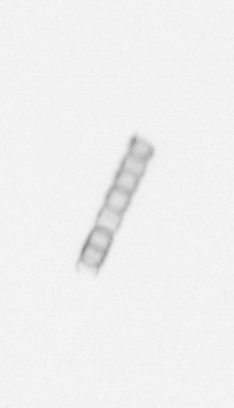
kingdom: Chromista
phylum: Ochrophyta
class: Bacillariophyceae
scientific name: Bacillariophyceae
